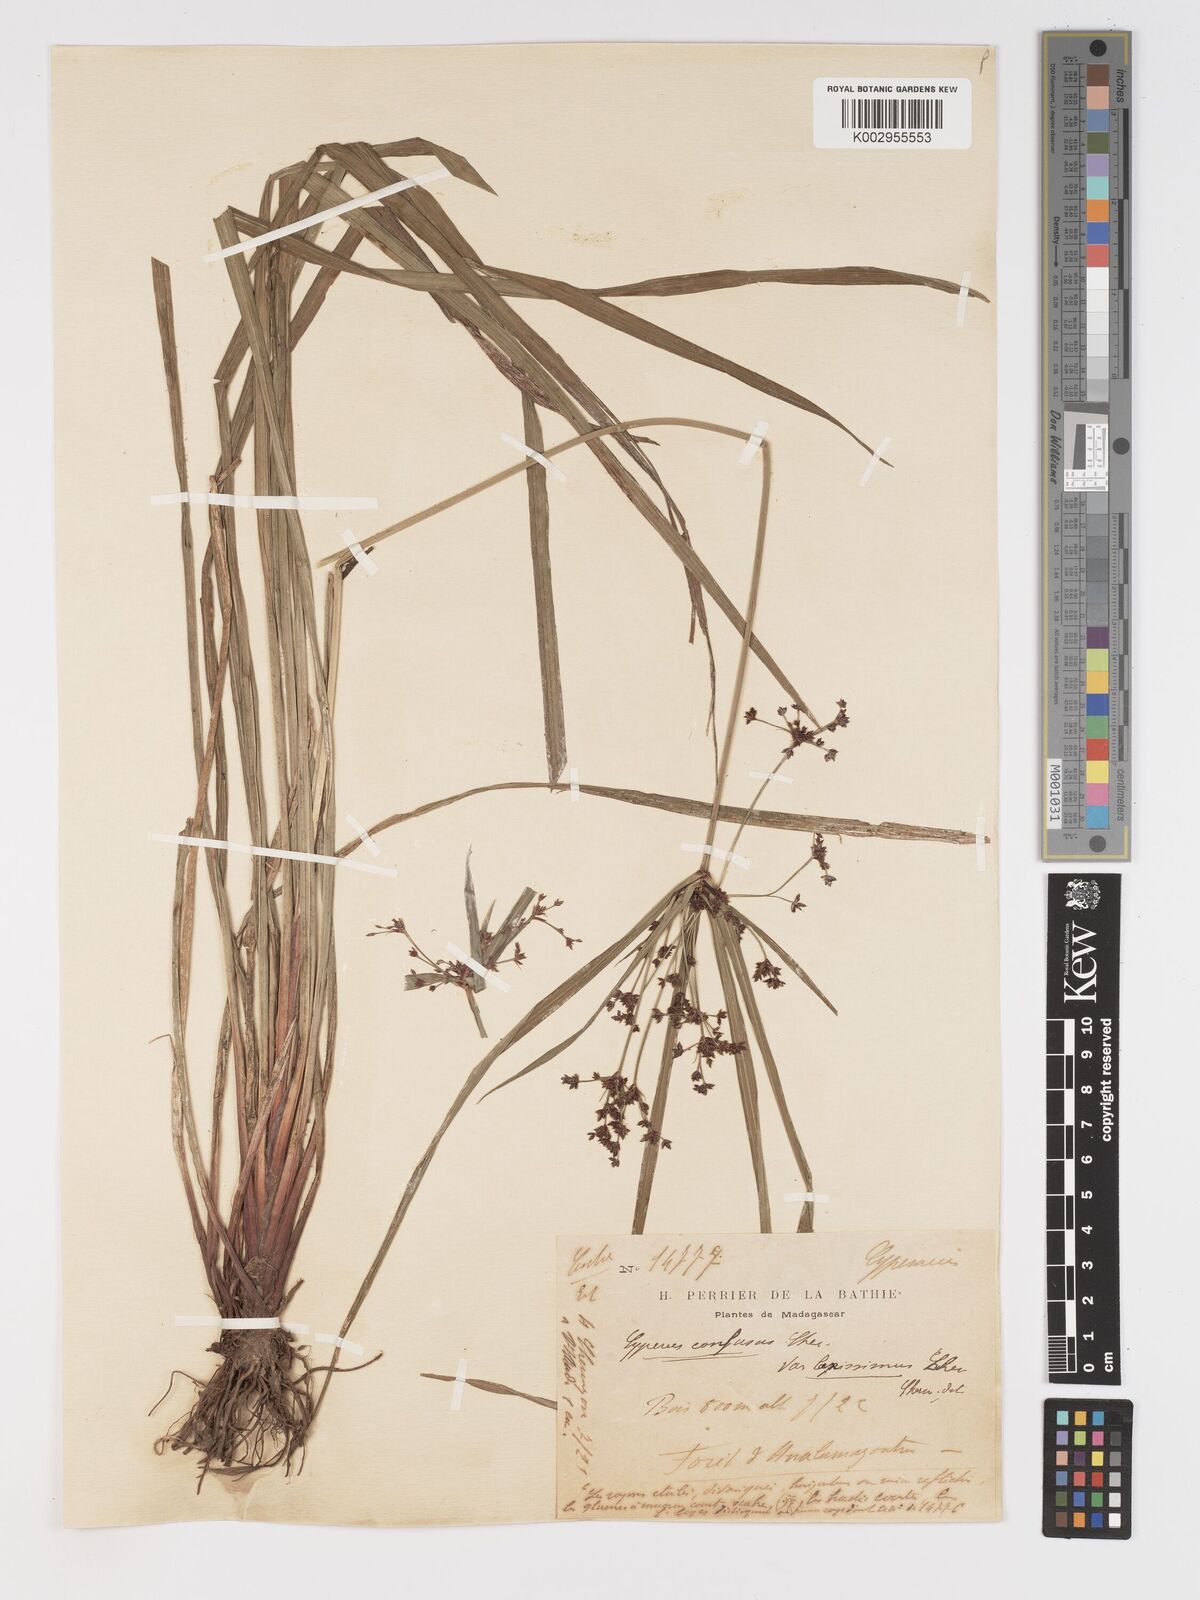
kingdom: Plantae
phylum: Tracheophyta
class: Liliopsida
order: Poales
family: Cyperaceae
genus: Cyperus
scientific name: Cyperus longifolius
